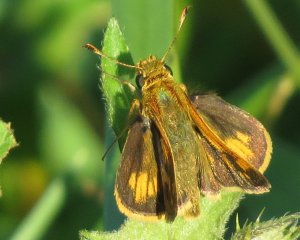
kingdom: Animalia
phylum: Arthropoda
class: Insecta
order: Lepidoptera
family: Hesperiidae
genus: Polites
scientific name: Polites coras
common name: Peck's Skipper
